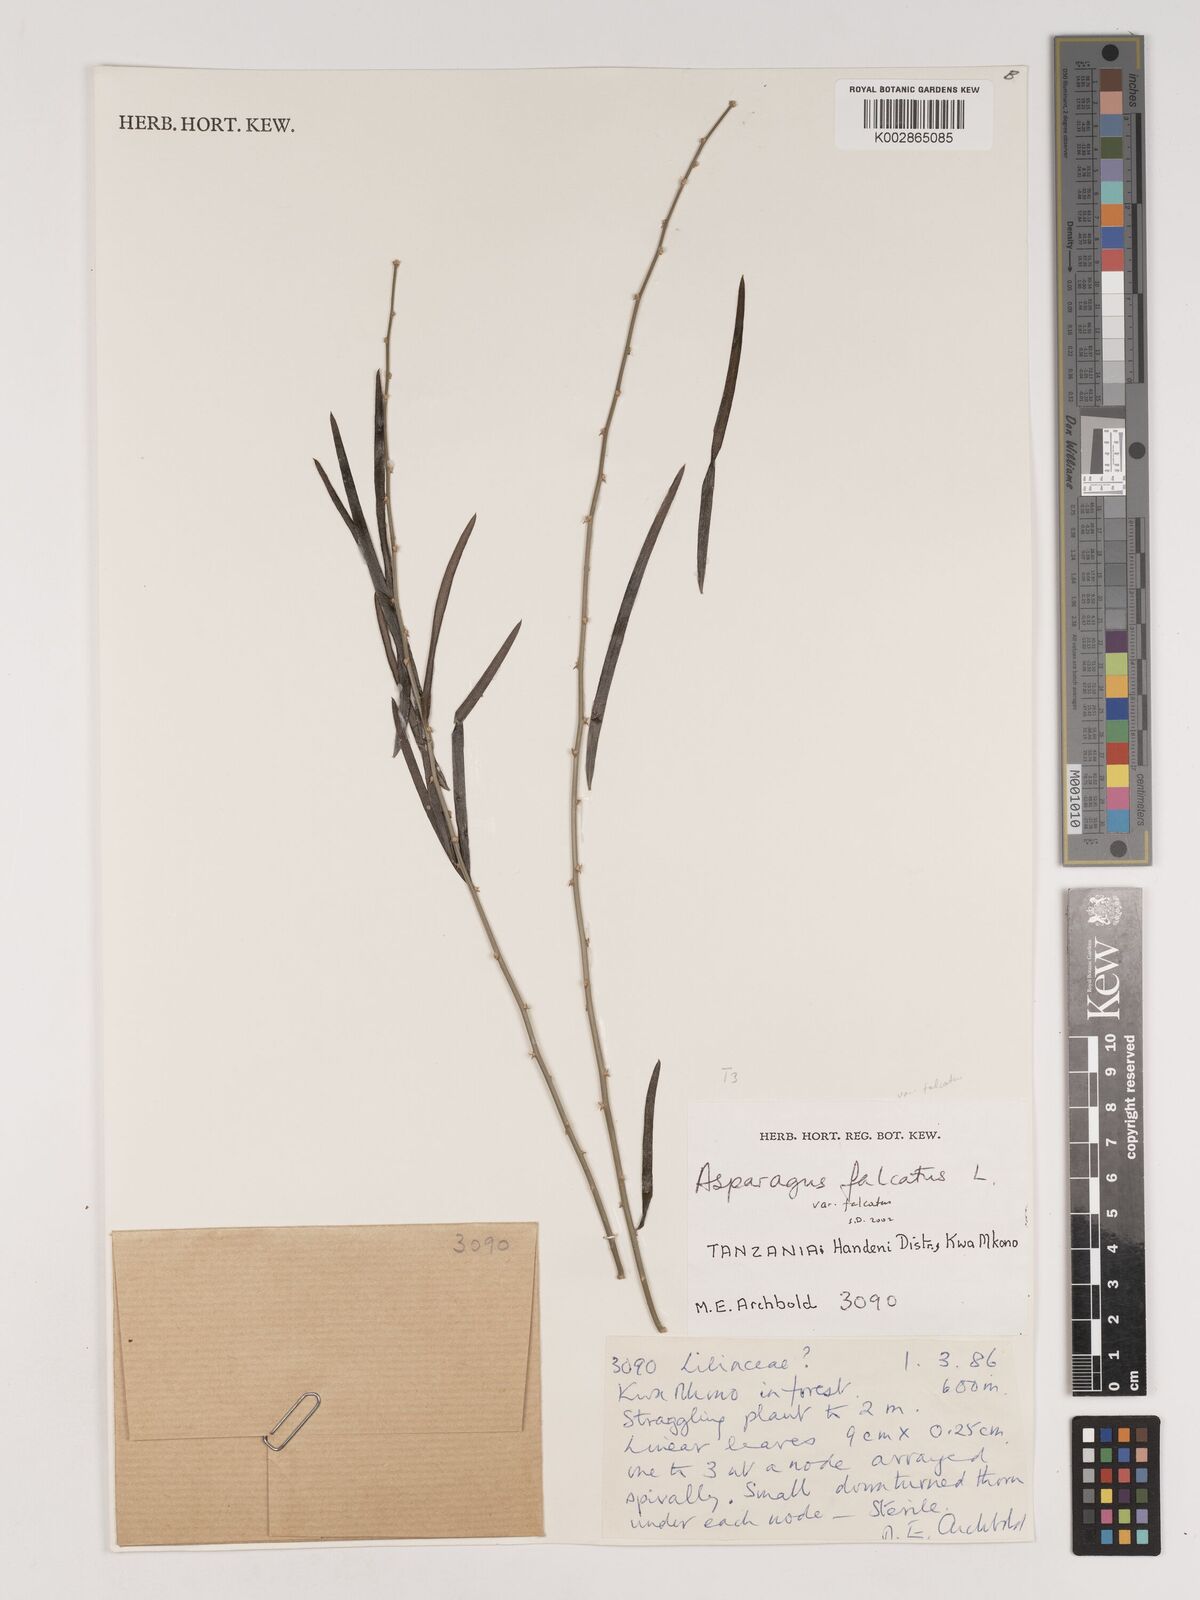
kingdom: Plantae
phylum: Tracheophyta
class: Liliopsida
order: Asparagales
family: Asparagaceae
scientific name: Asparagaceae
